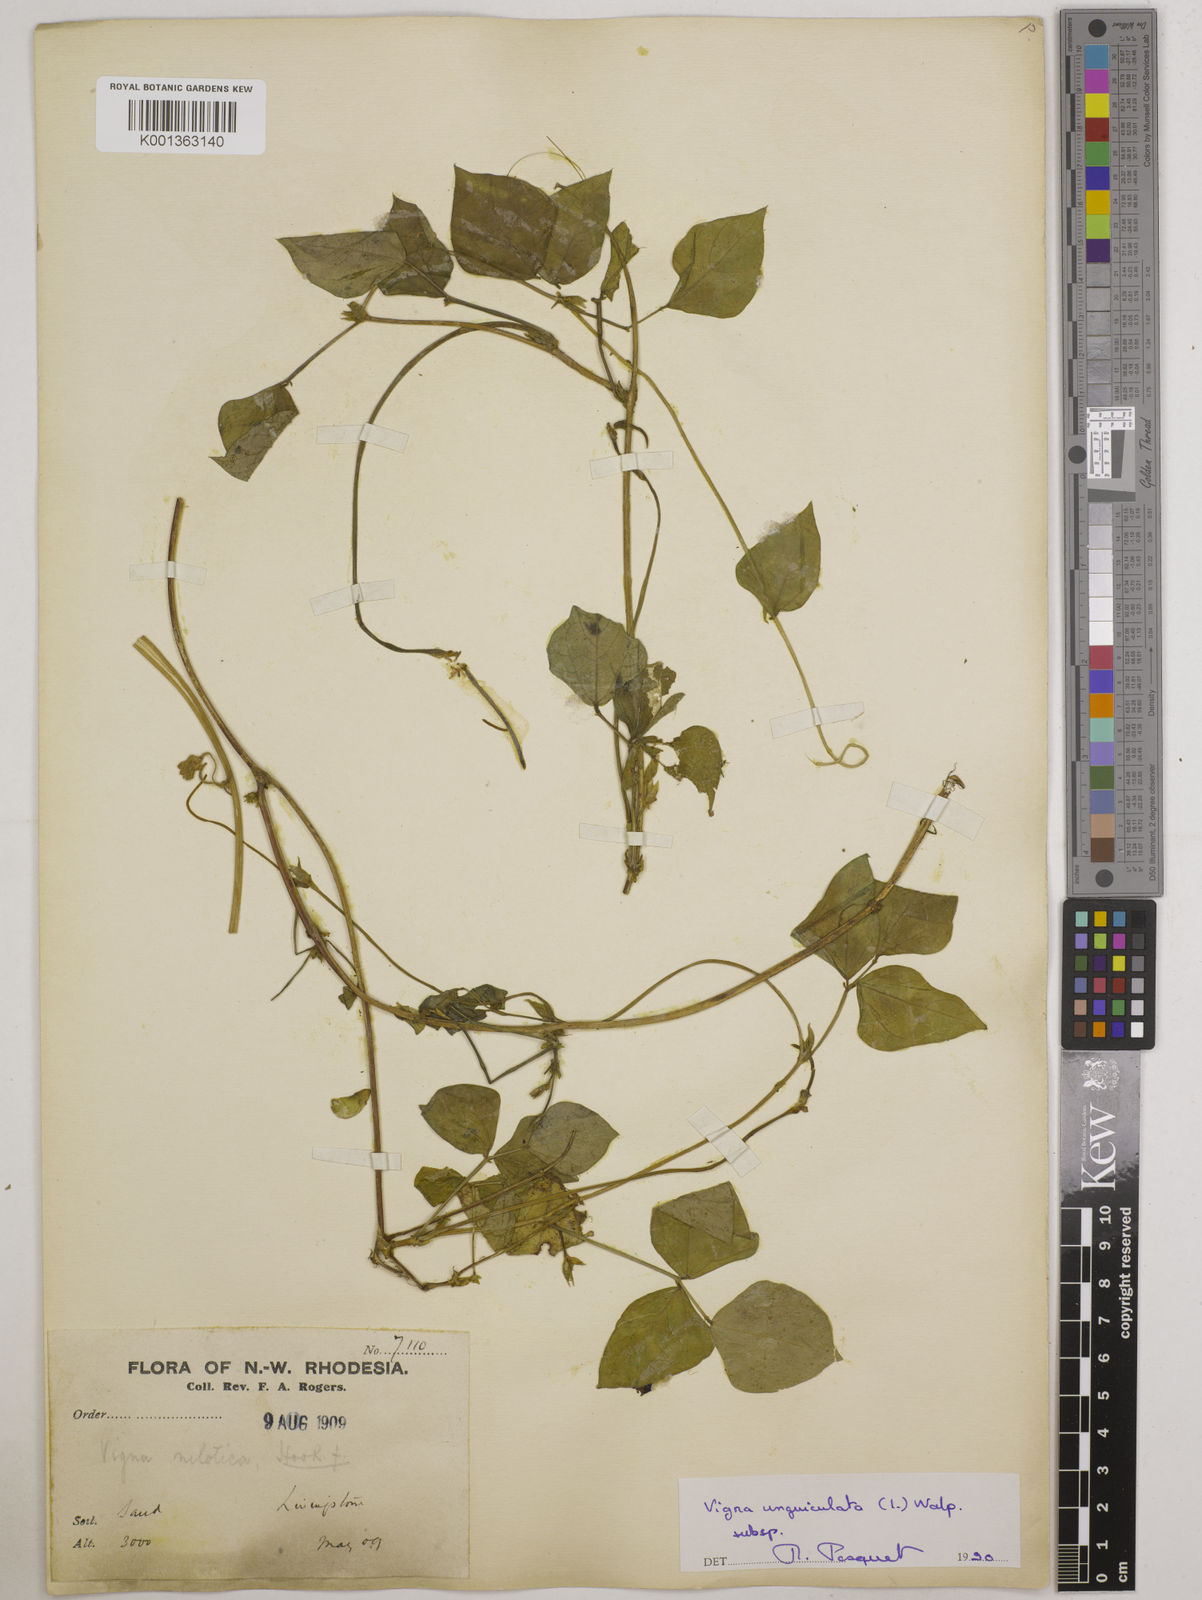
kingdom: Plantae
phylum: Tracheophyta
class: Magnoliopsida
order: Fabales
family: Fabaceae
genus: Vigna
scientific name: Vigna unguiculata
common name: Cowpea
